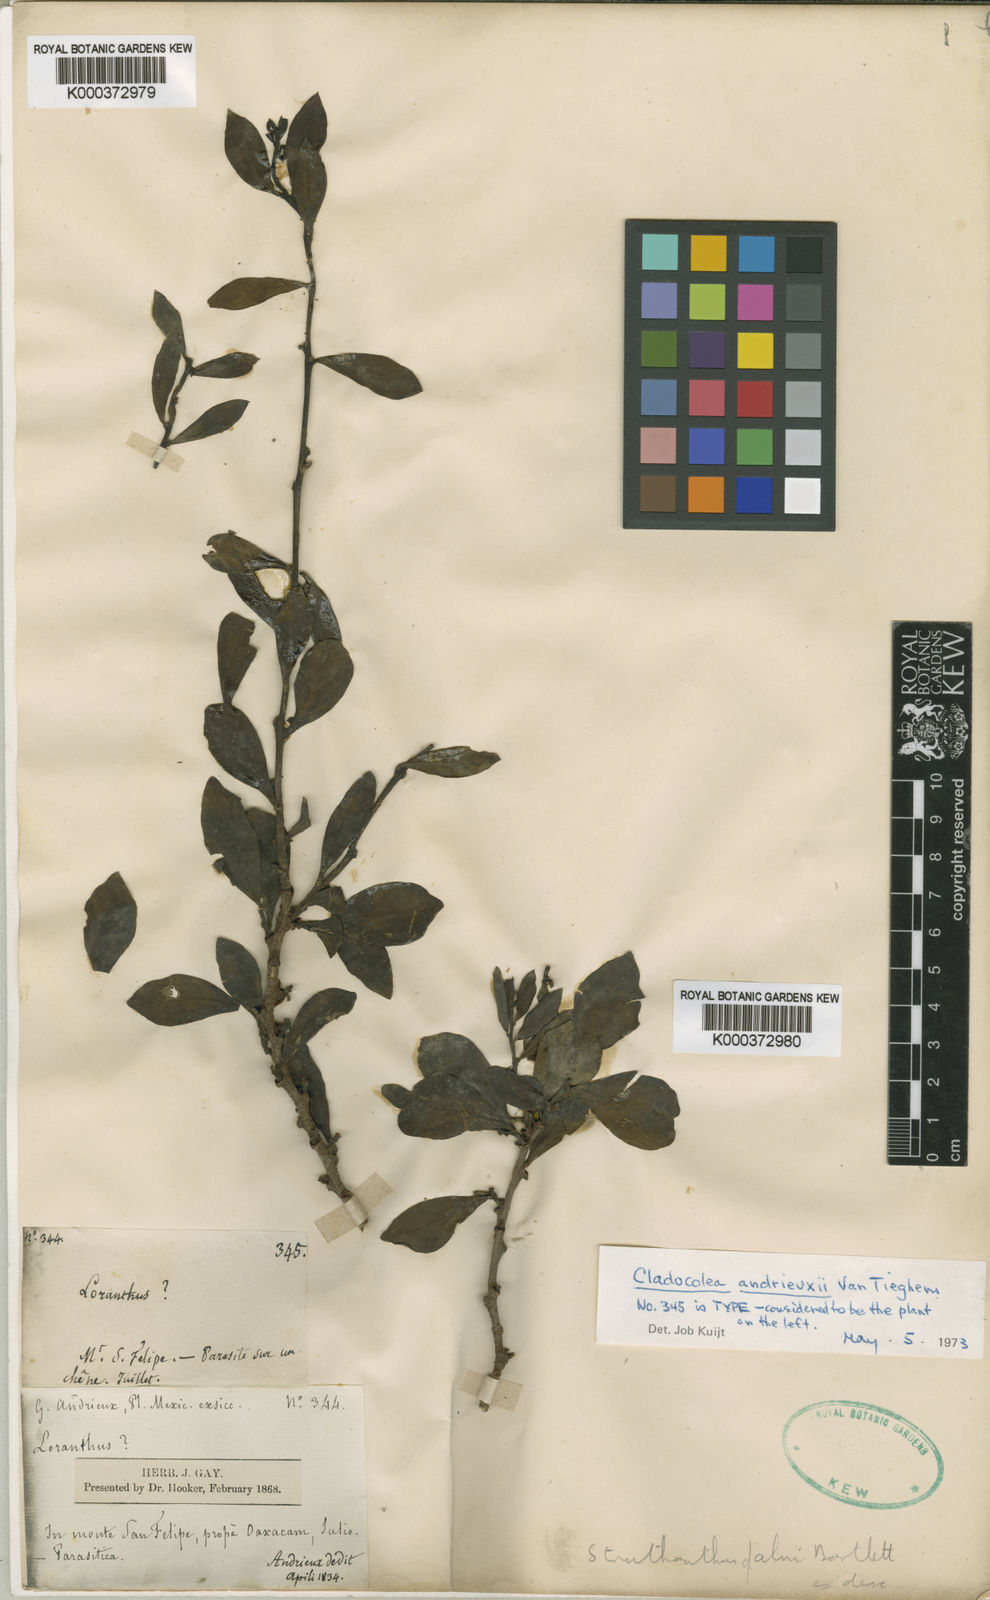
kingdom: Plantae
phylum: Tracheophyta
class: Magnoliopsida
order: Santalales
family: Loranthaceae
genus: Cladocolea
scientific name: Cladocolea andrieuxii
